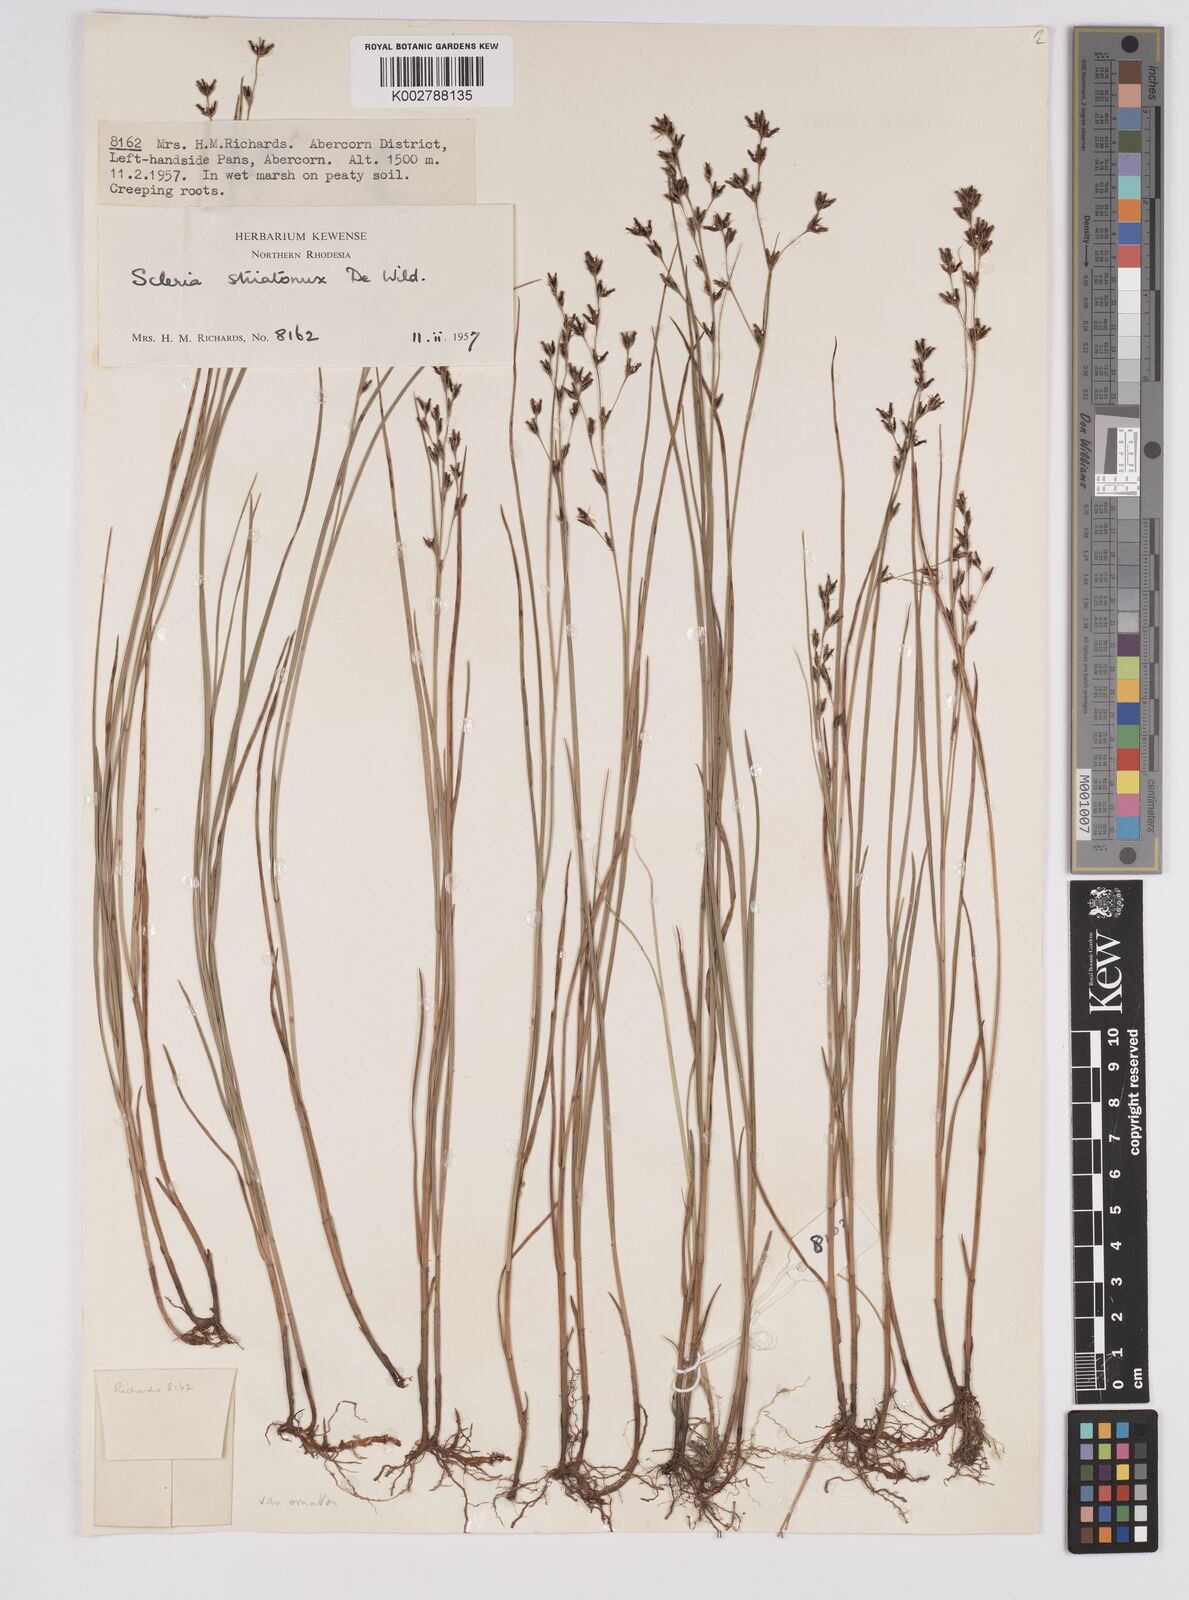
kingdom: Plantae
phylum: Tracheophyta
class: Liliopsida
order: Poales
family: Cyperaceae
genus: Scleria
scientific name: Scleria woodii
